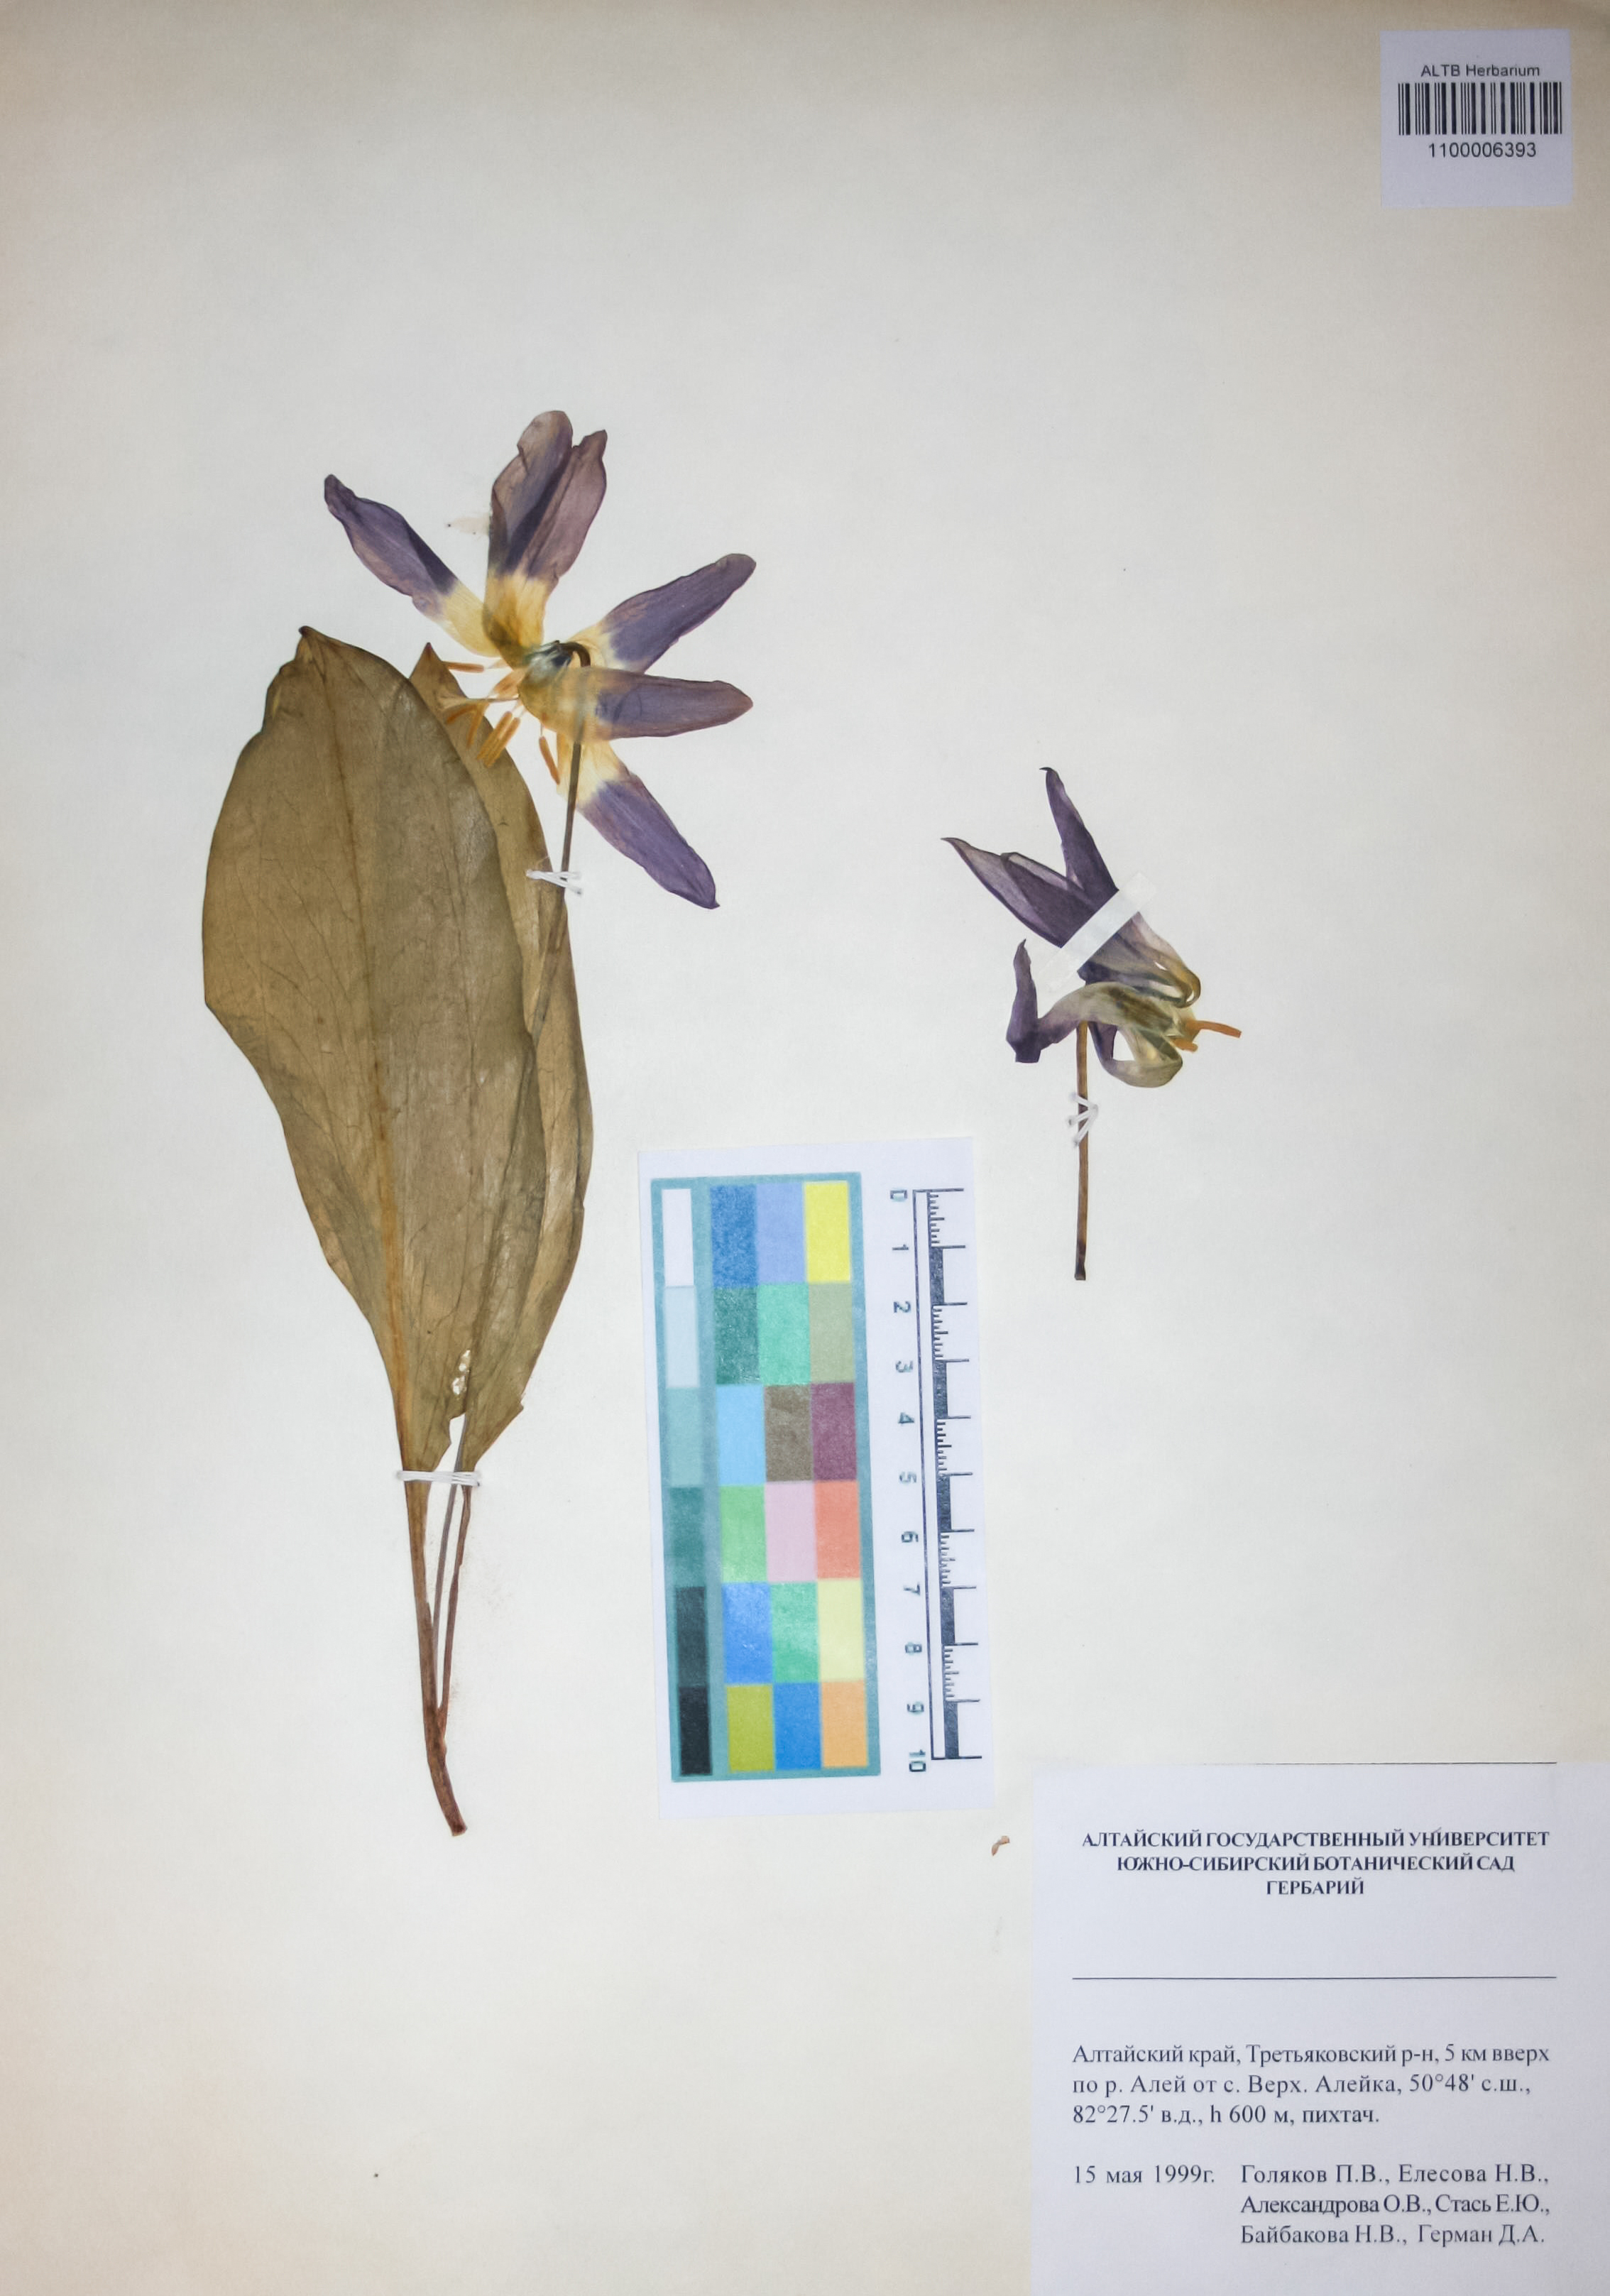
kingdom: Plantae
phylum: Tracheophyta
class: Liliopsida
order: Liliales
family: Liliaceae
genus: Erythronium
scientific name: Erythronium sibiricum
